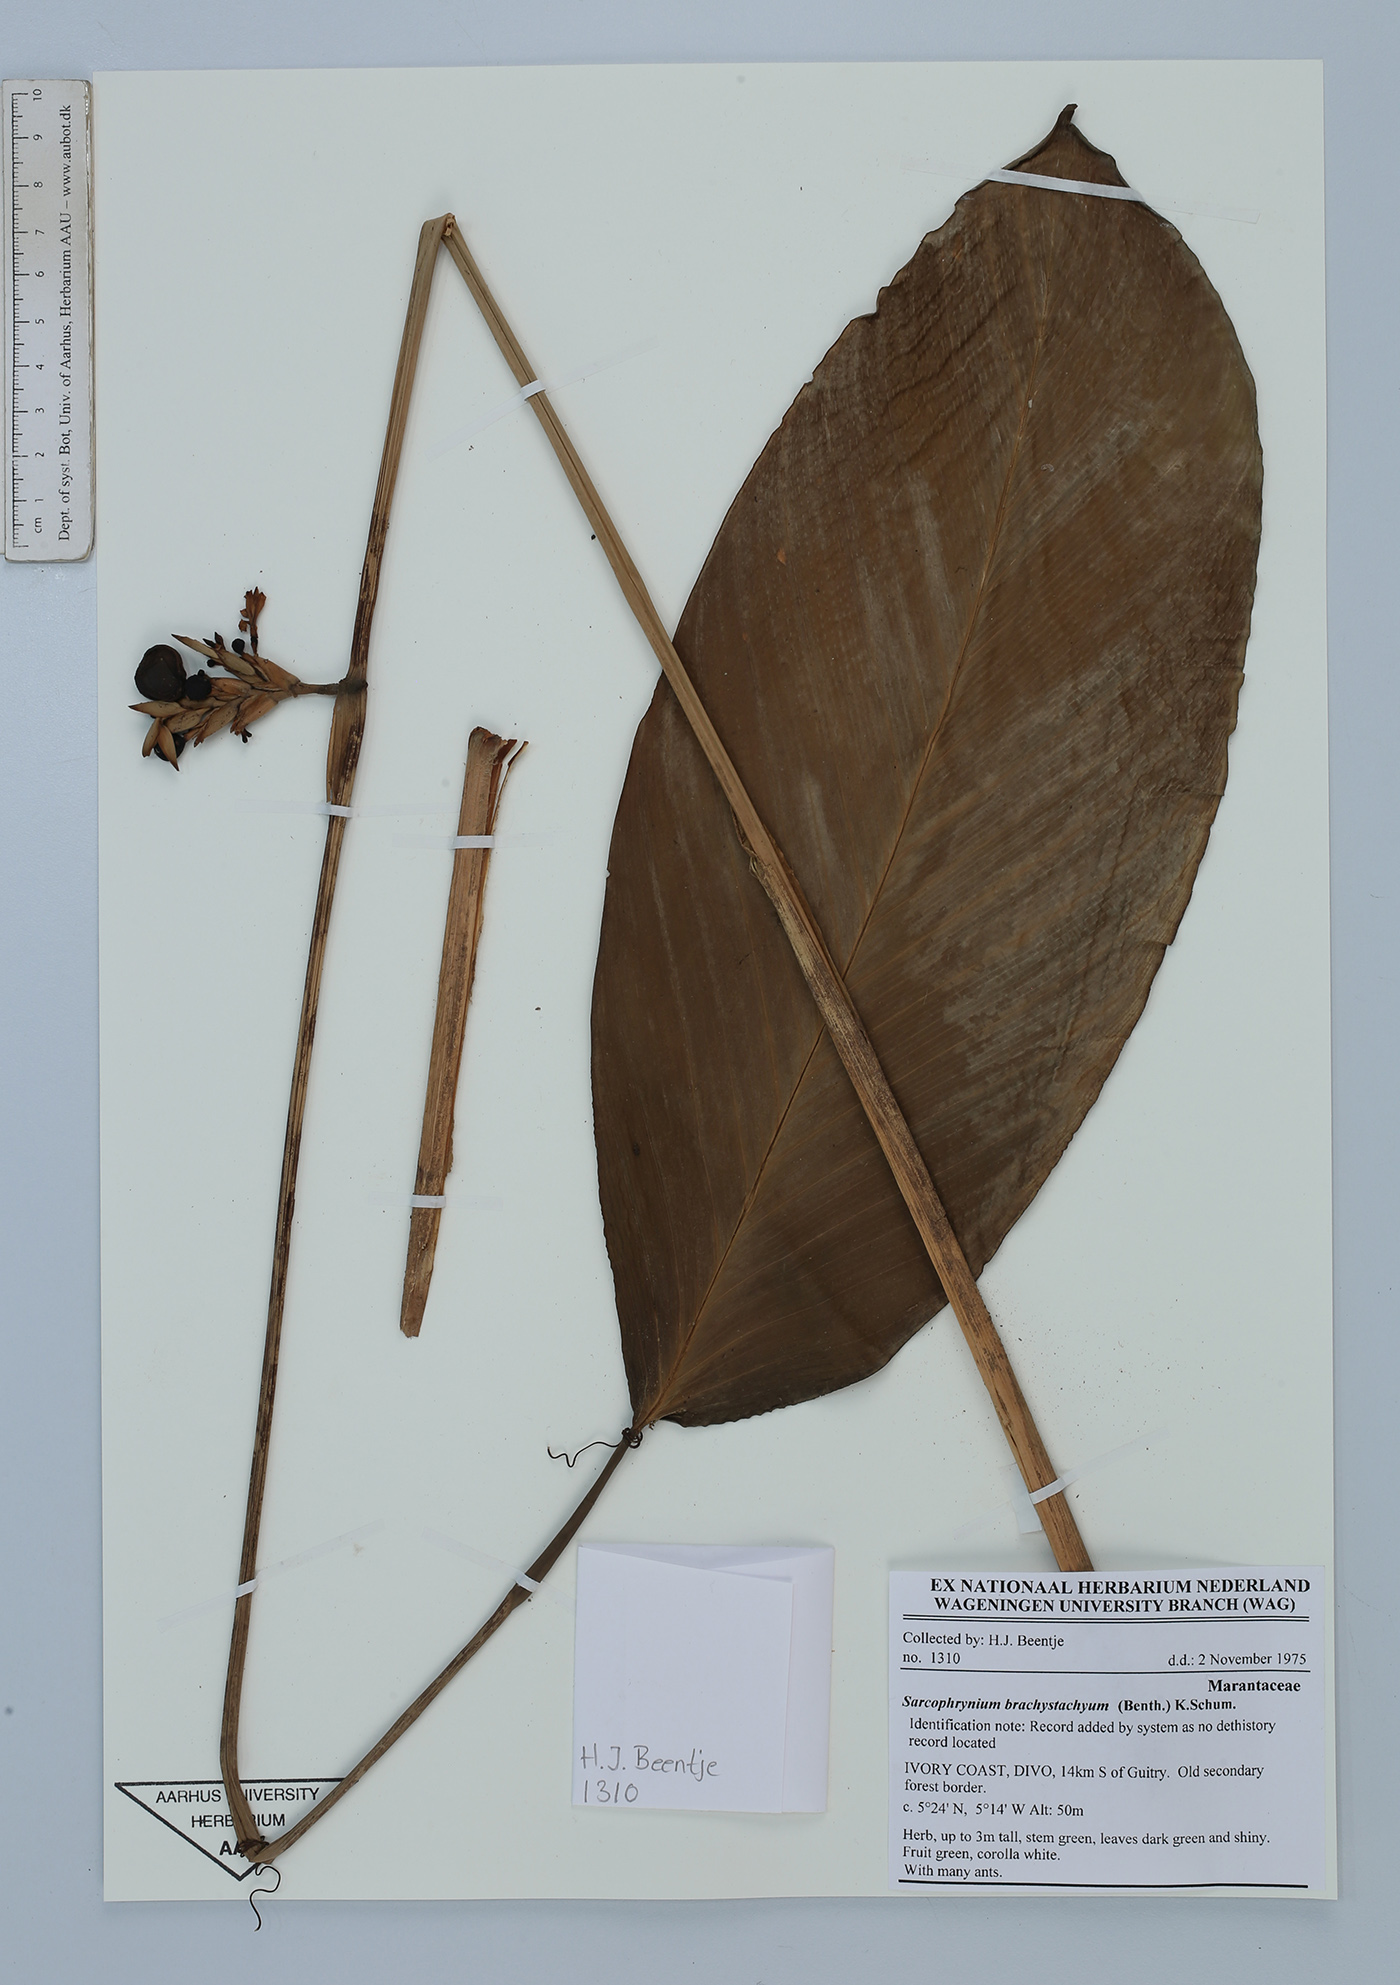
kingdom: Plantae
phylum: Tracheophyta
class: Liliopsida
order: Zingiberales
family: Marantaceae
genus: Sarcophrynium
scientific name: Sarcophrynium brachystachyum
